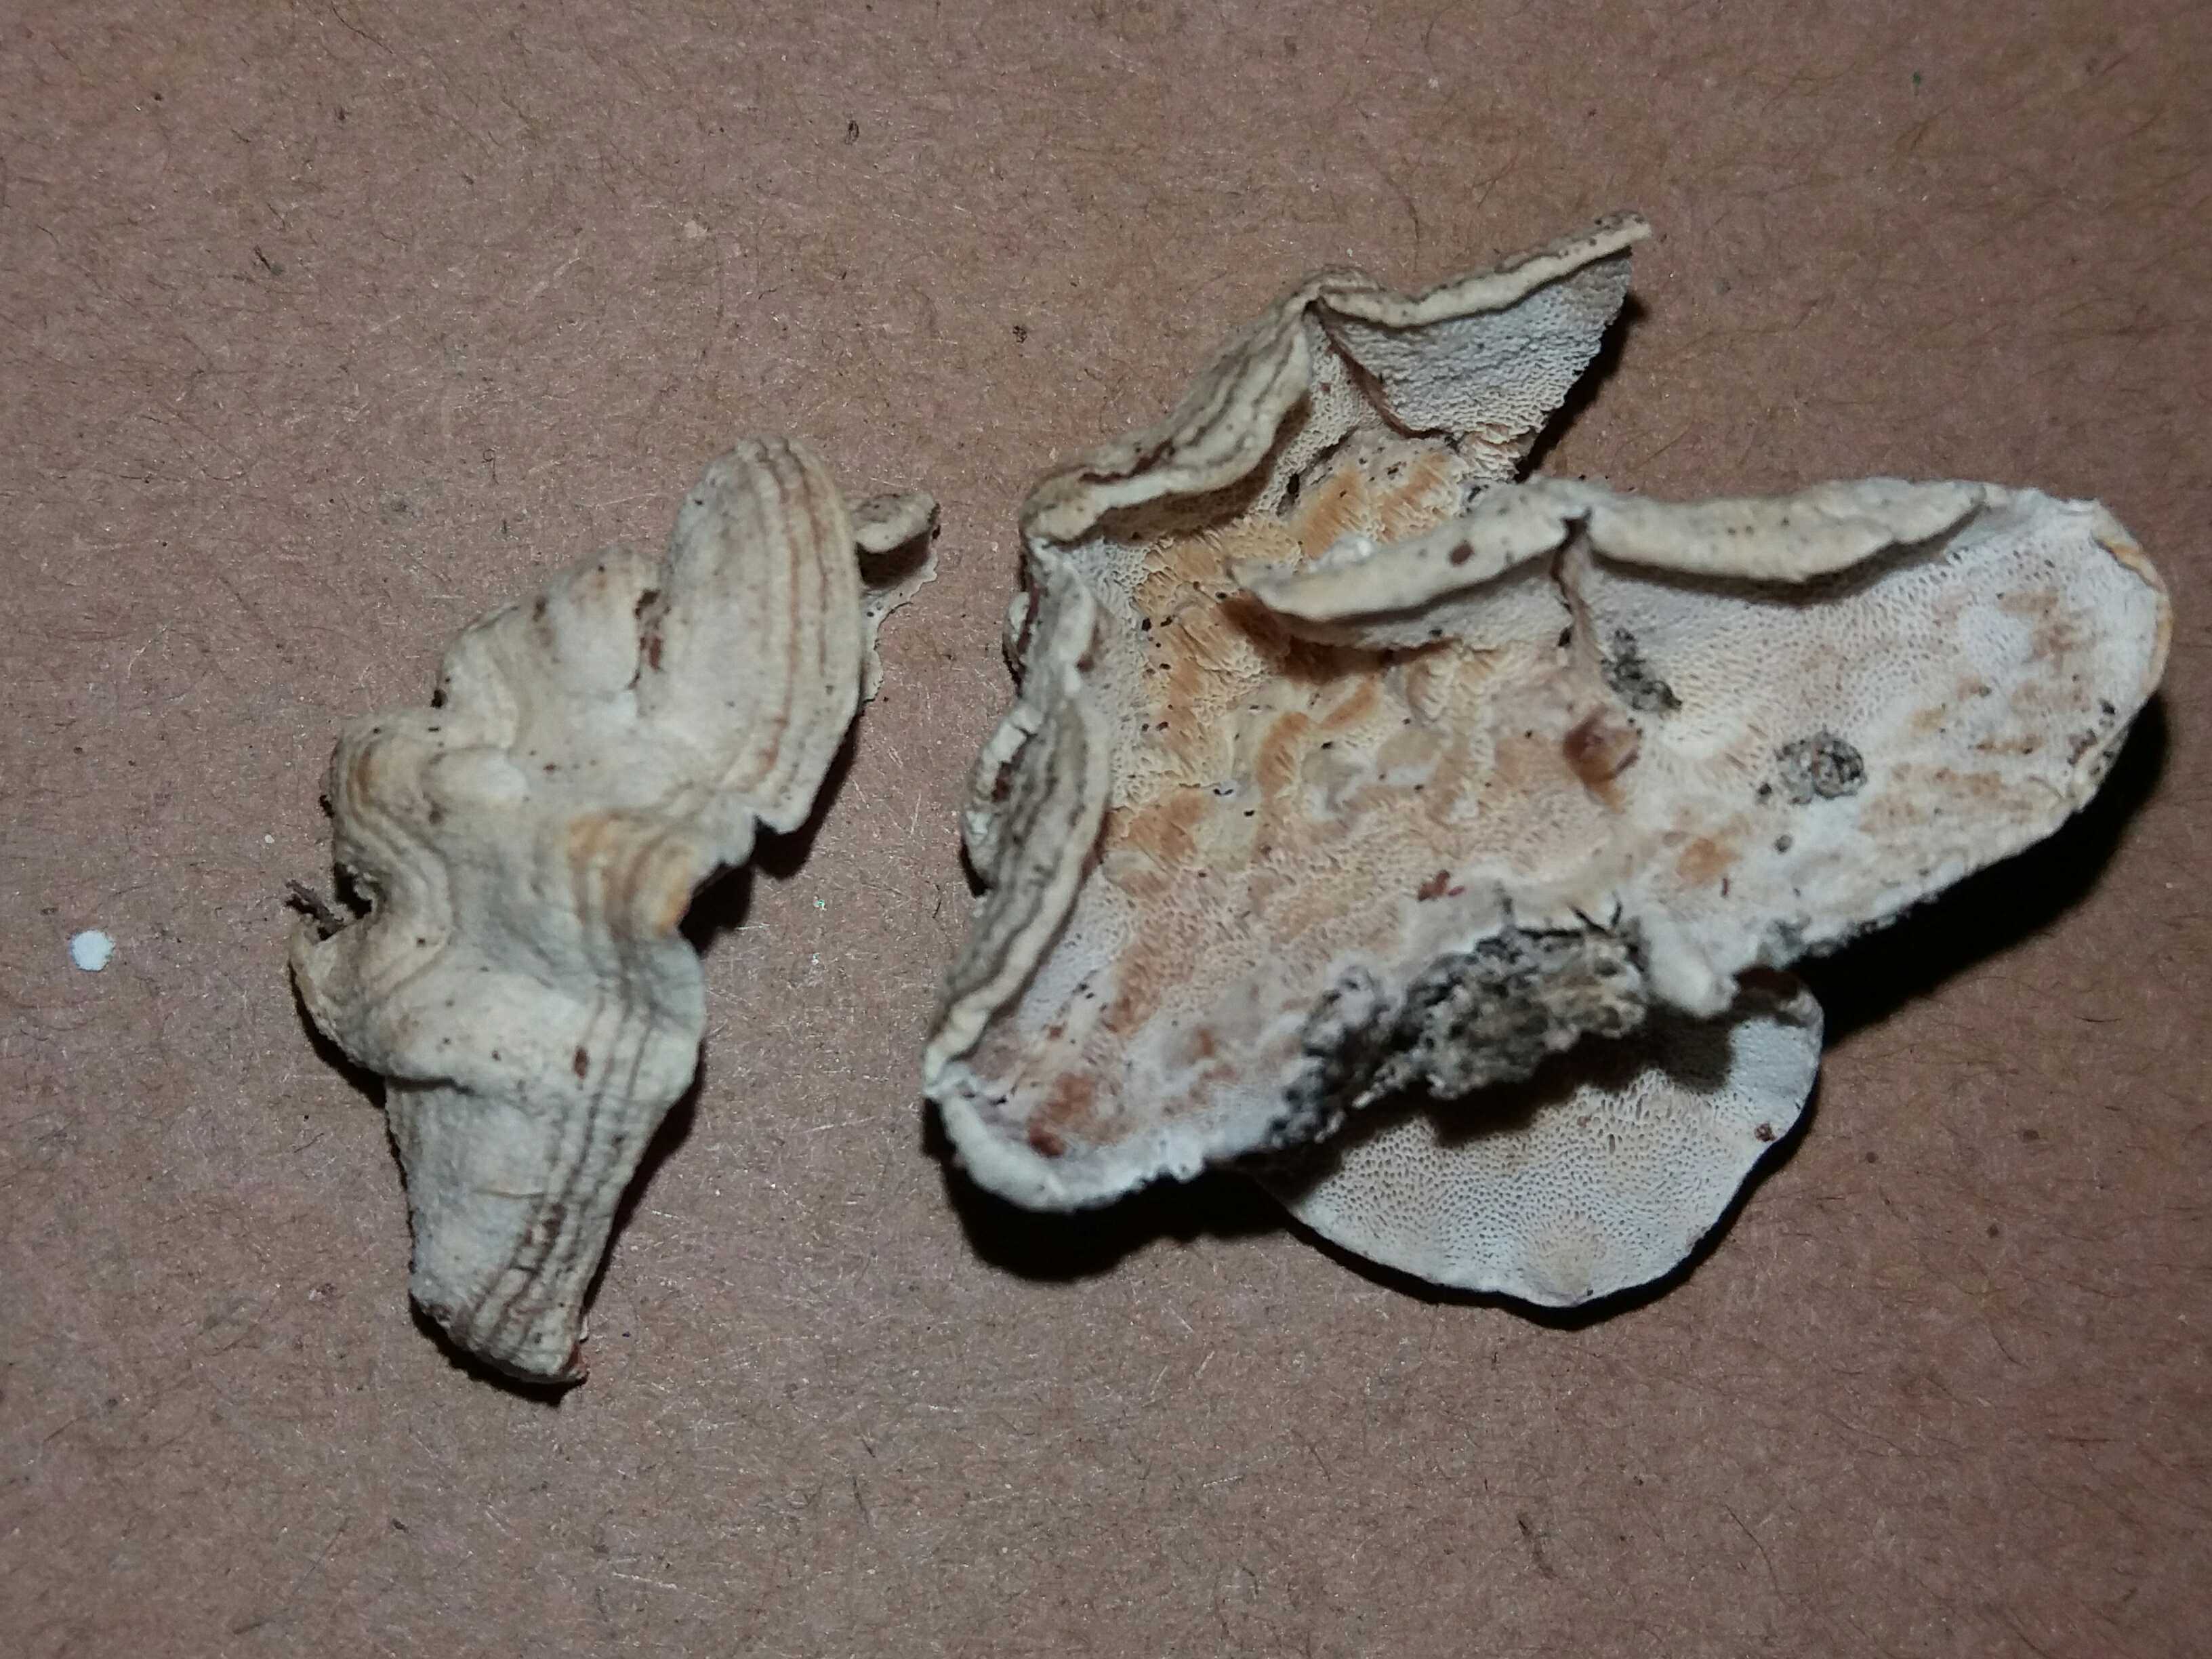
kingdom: Fungi
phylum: Basidiomycota
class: Agaricomycetes
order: Polyporales
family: Incrustoporiaceae
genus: Skeletocutis
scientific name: Skeletocutis amorpha
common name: orange krystalporesvamp
